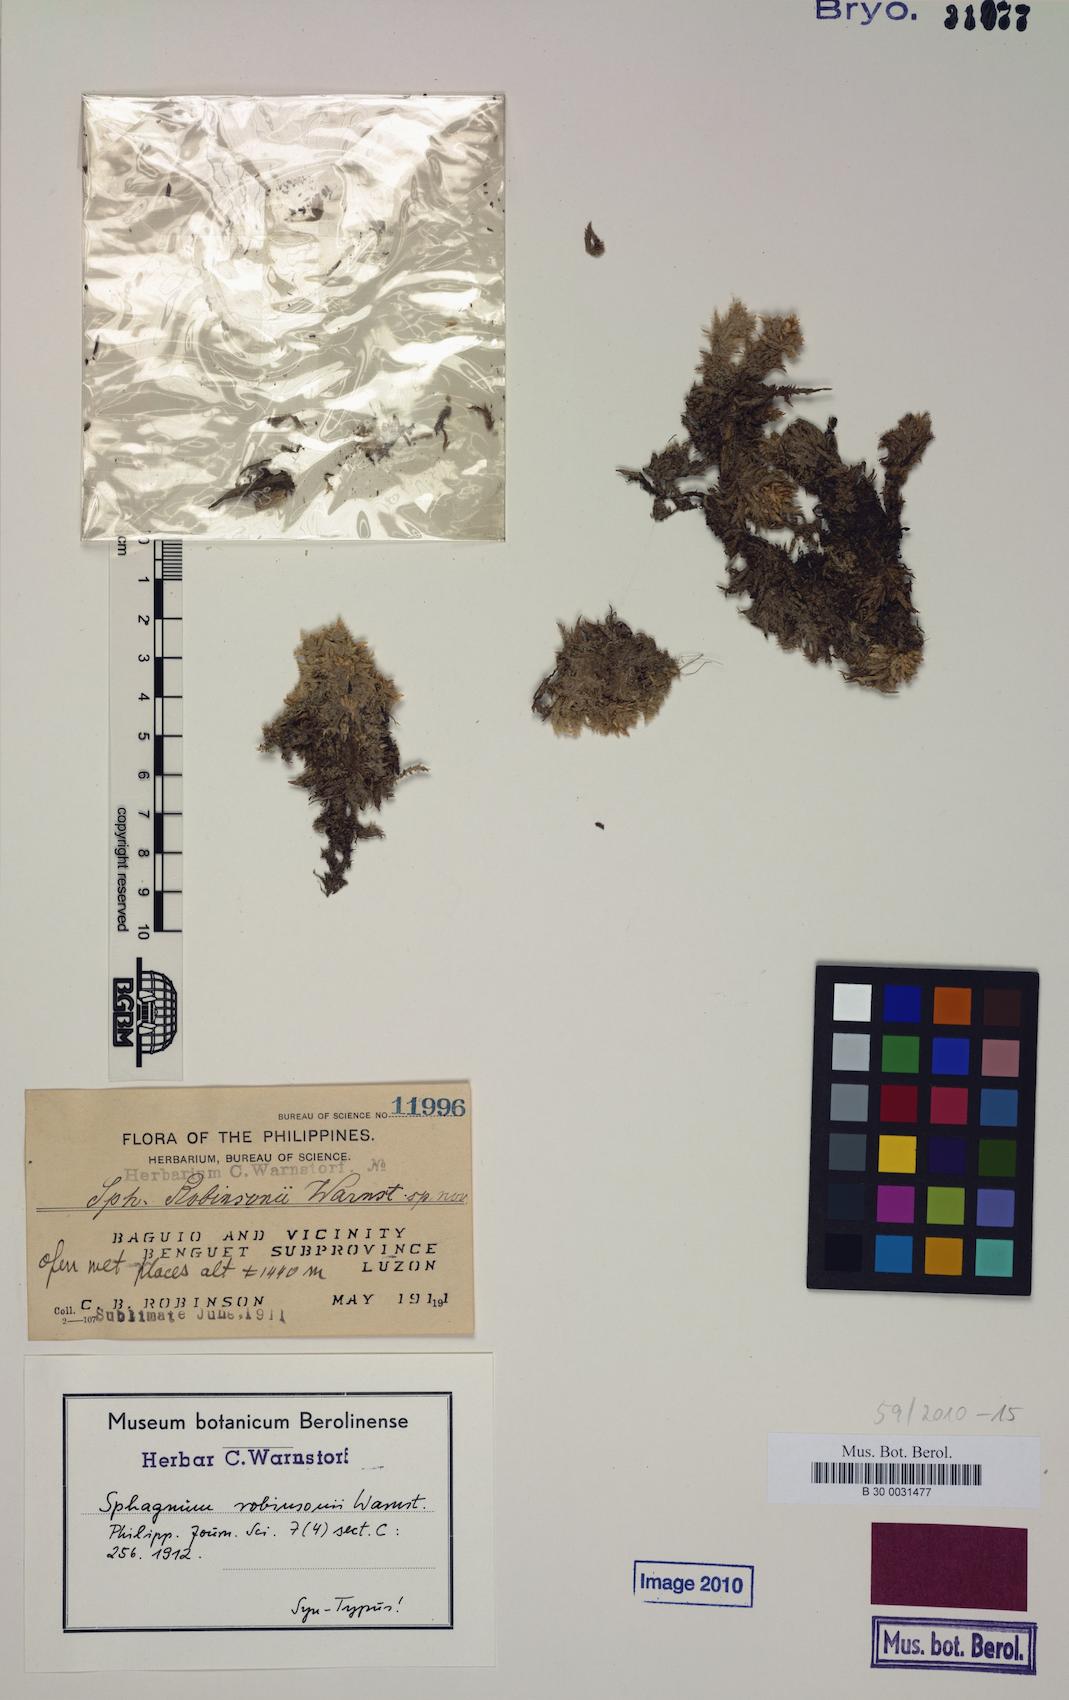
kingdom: Plantae
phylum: Bryophyta
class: Sphagnopsida
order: Sphagnales
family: Sphagnaceae
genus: Sphagnum
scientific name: Sphagnum robinsonii
